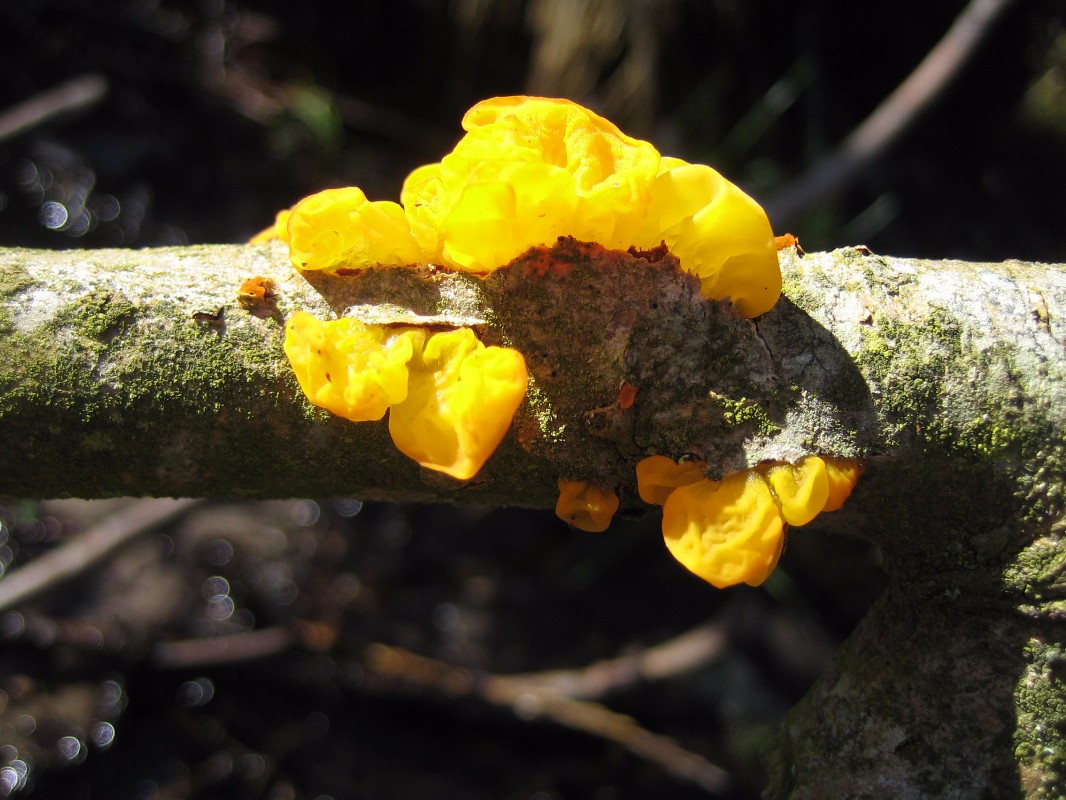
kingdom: Fungi
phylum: Basidiomycota
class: Tremellomycetes
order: Tremellales
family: Tremellaceae
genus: Tremella
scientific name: Tremella mesenterica
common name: gul bævresvamp
